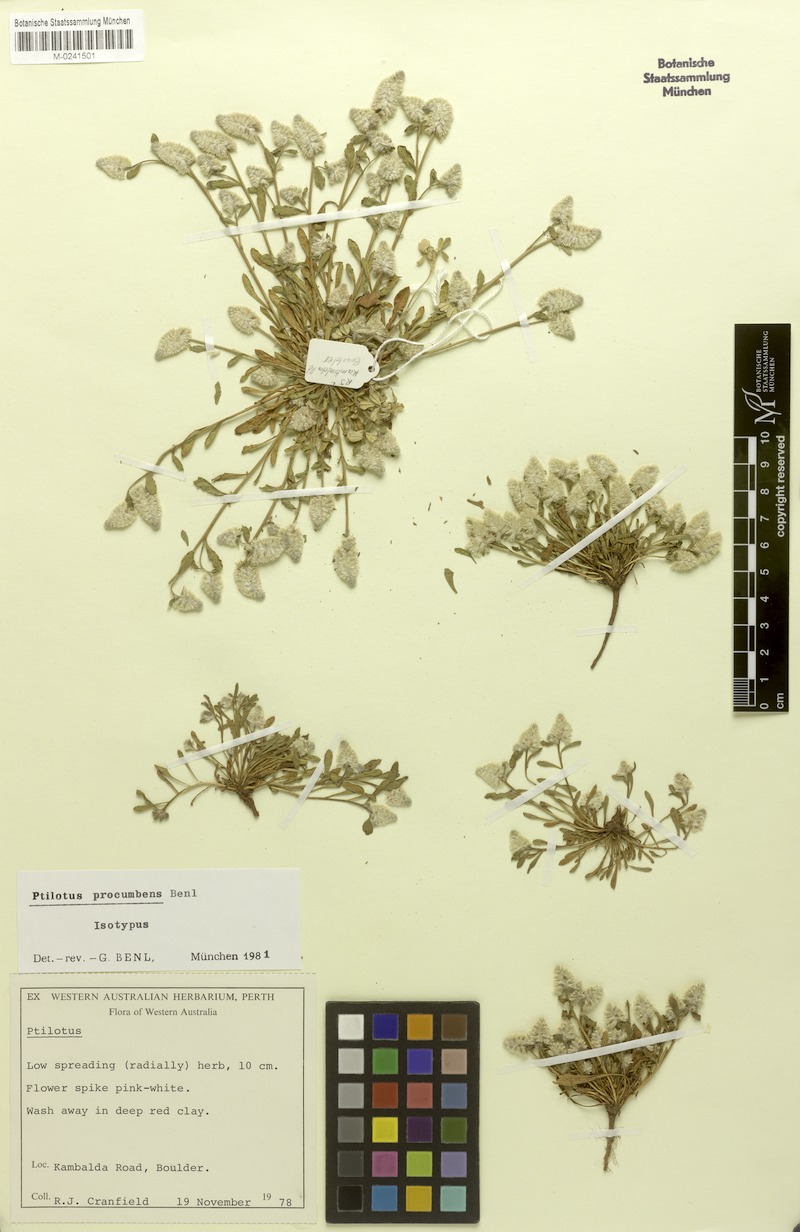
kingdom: Plantae
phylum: Tracheophyta
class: Magnoliopsida
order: Caryophyllales
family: Amaranthaceae
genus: Ptilotus
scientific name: Ptilotus procumbens
